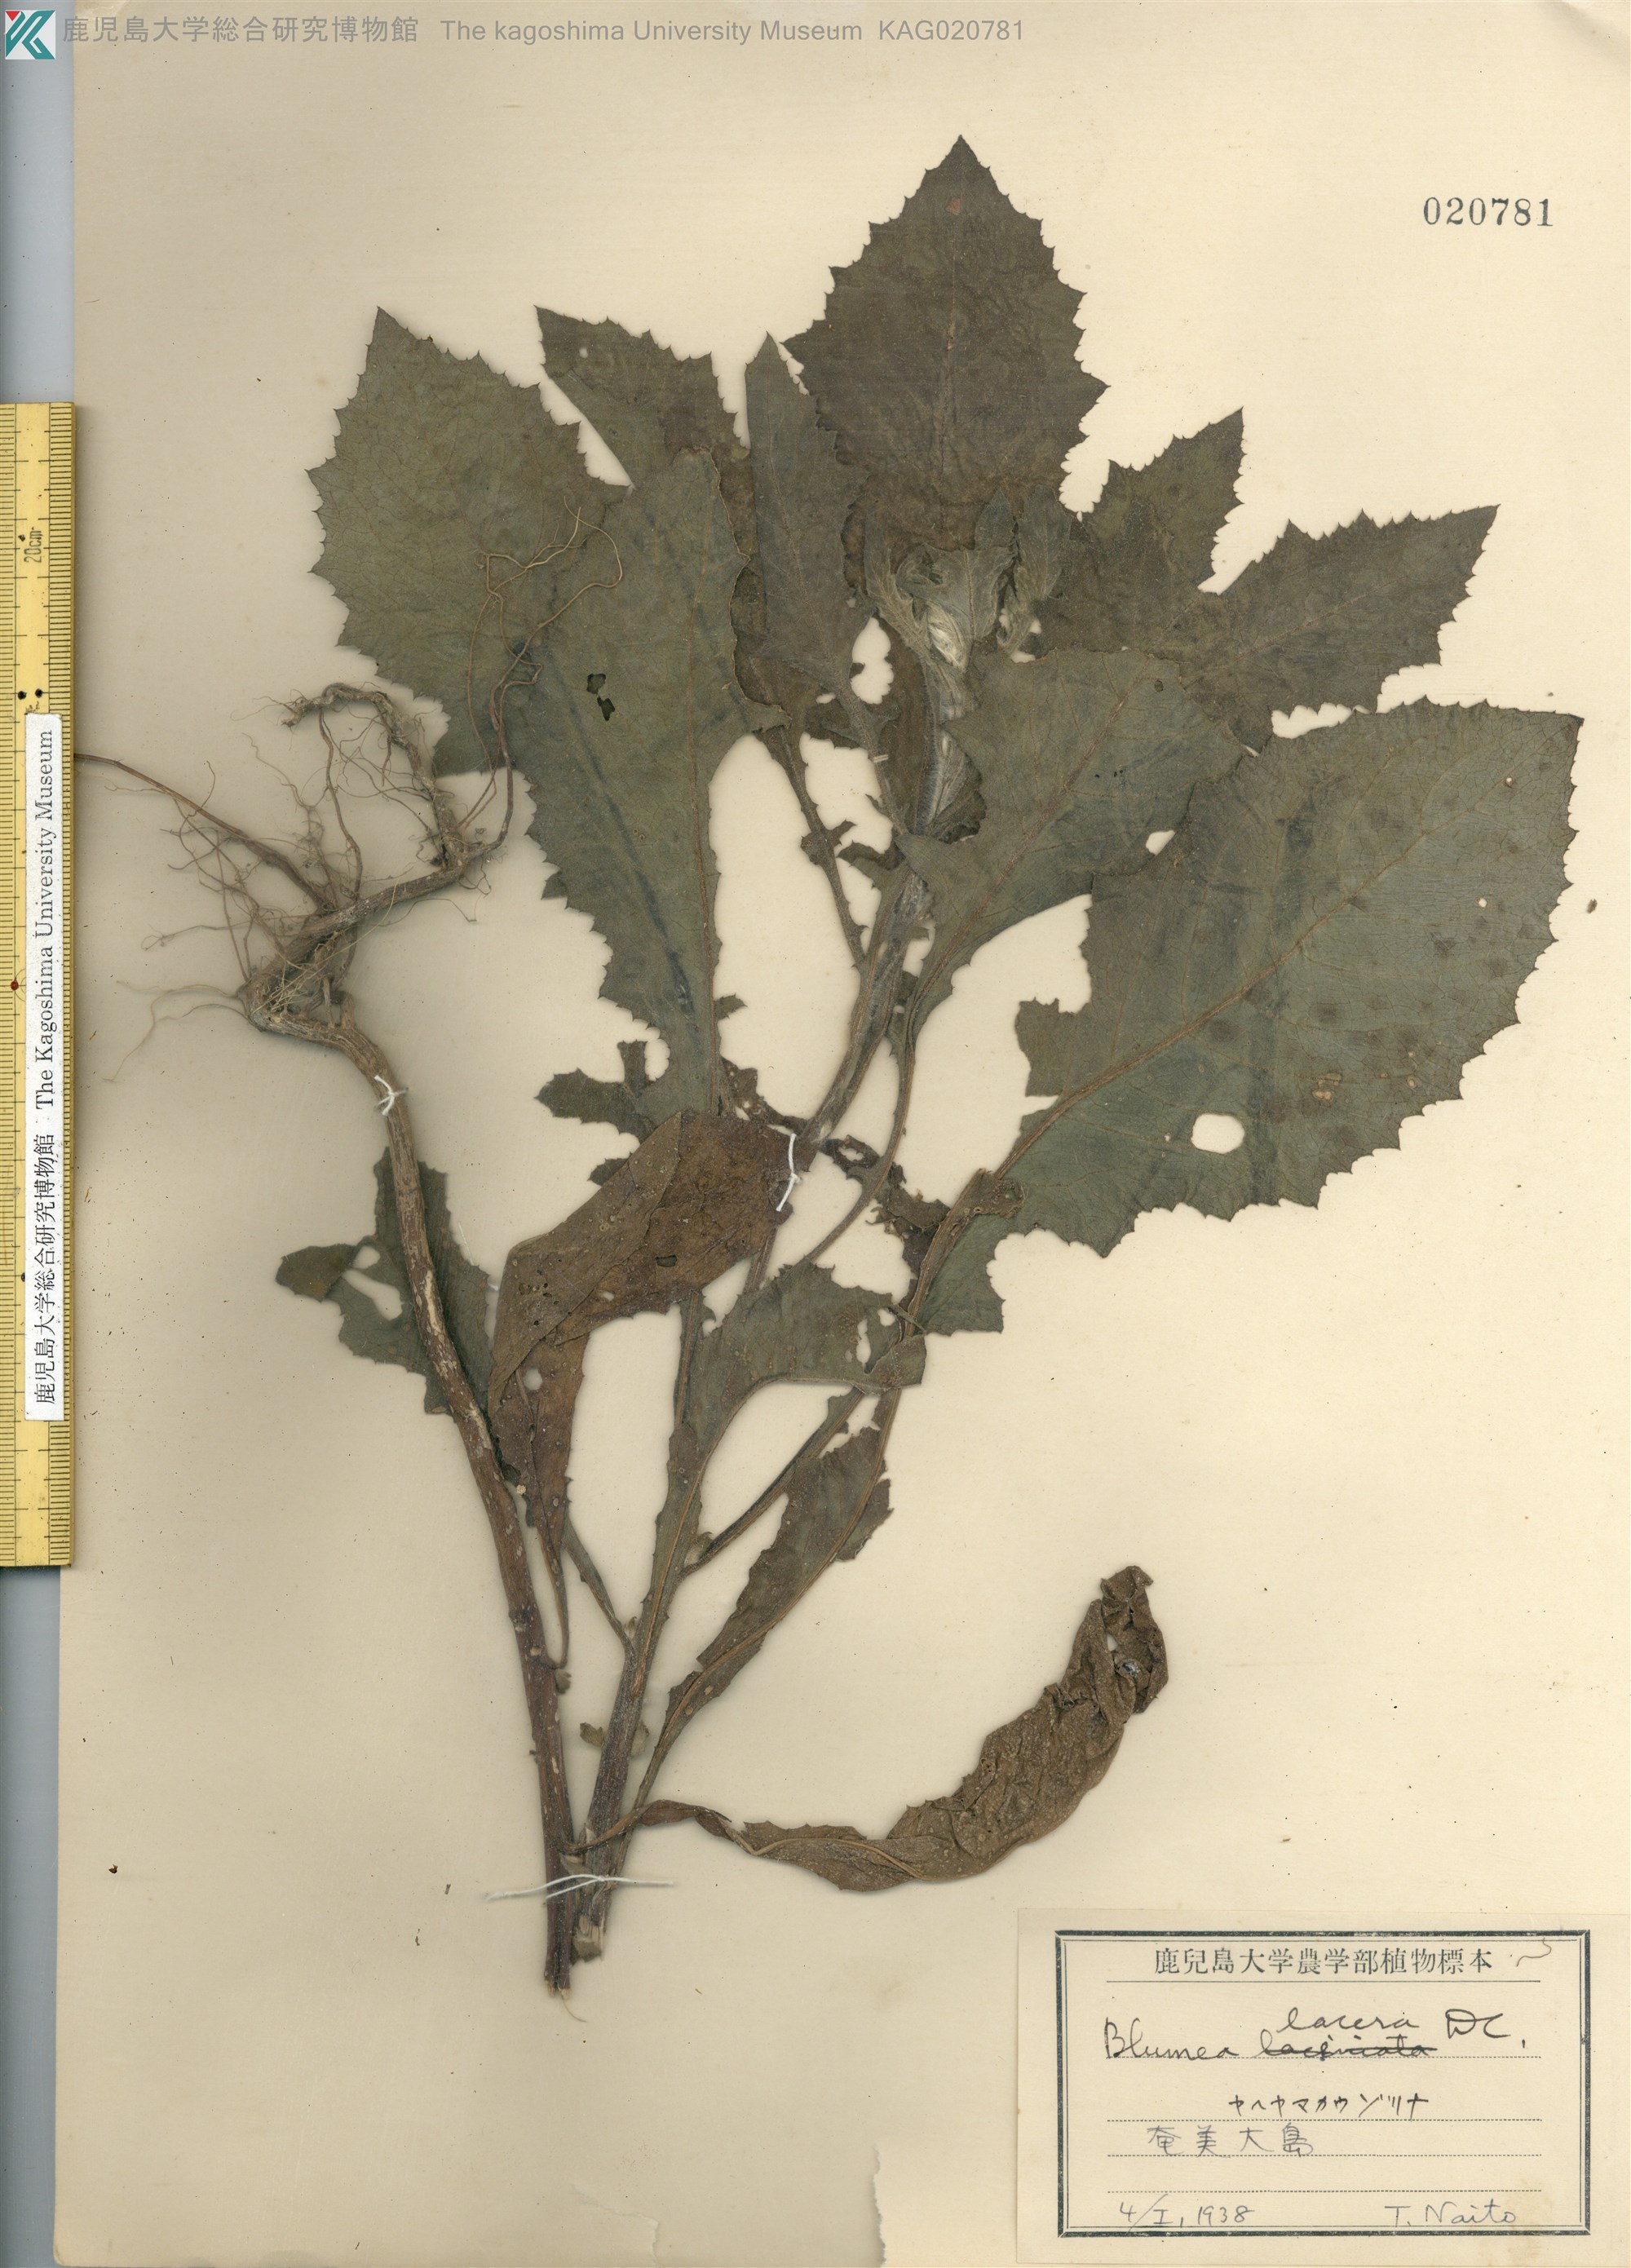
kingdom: Plantae
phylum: Tracheophyta
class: Magnoliopsida
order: Asterales
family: Asteraceae
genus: Blumea
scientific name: Blumea lacera
